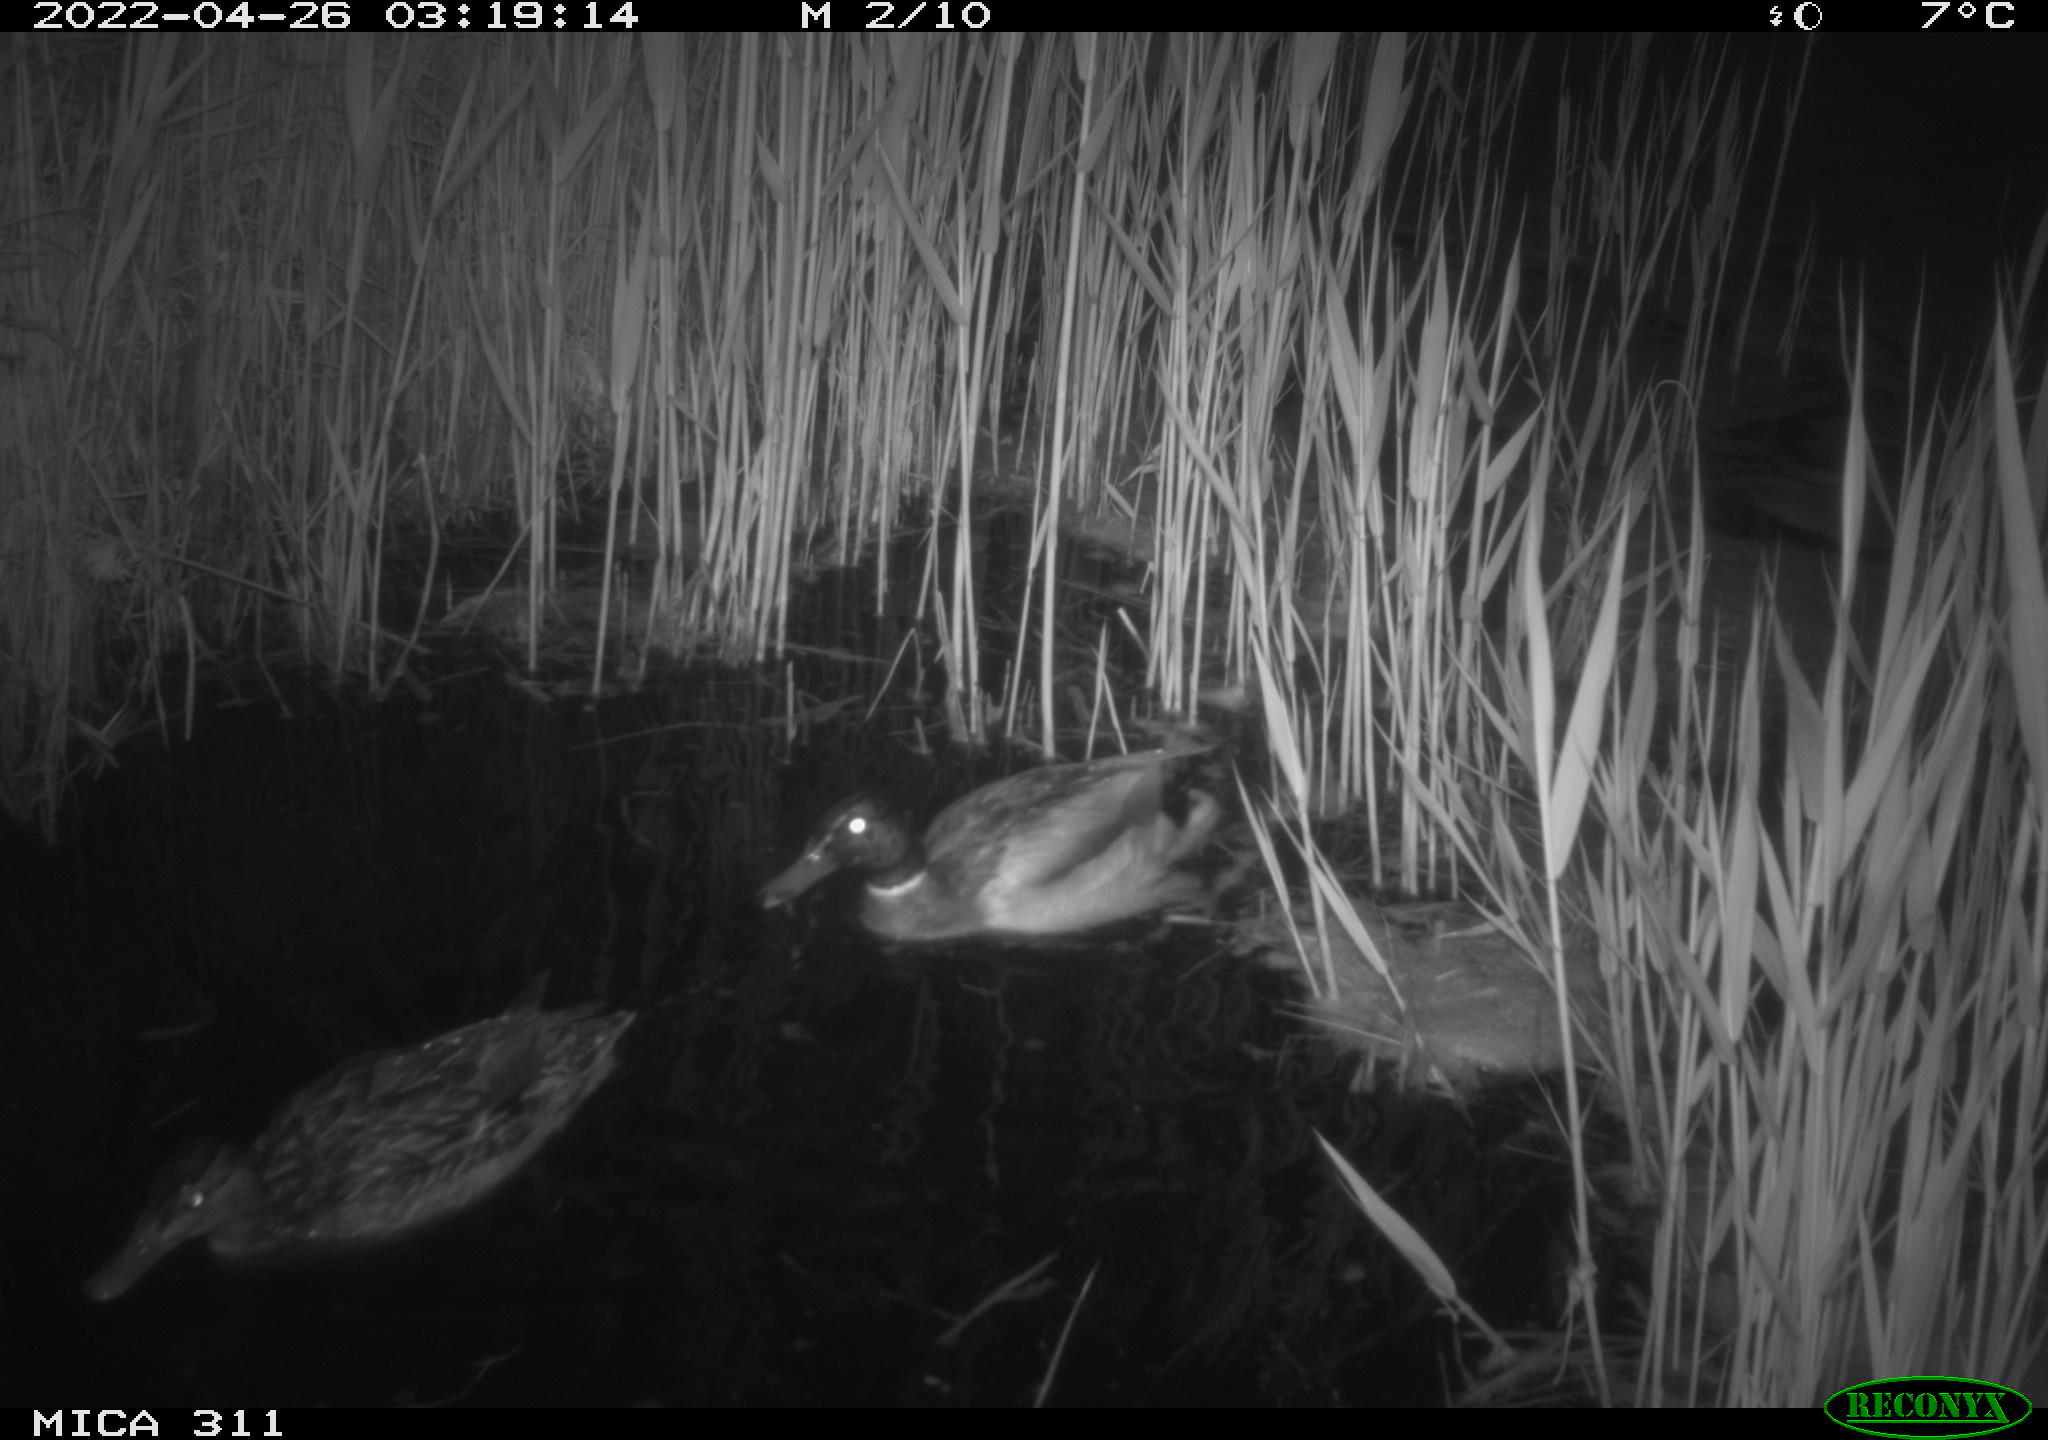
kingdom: Animalia
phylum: Chordata
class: Aves
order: Anseriformes
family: Anatidae
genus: Anas
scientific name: Anas platyrhynchos
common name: Mallard
